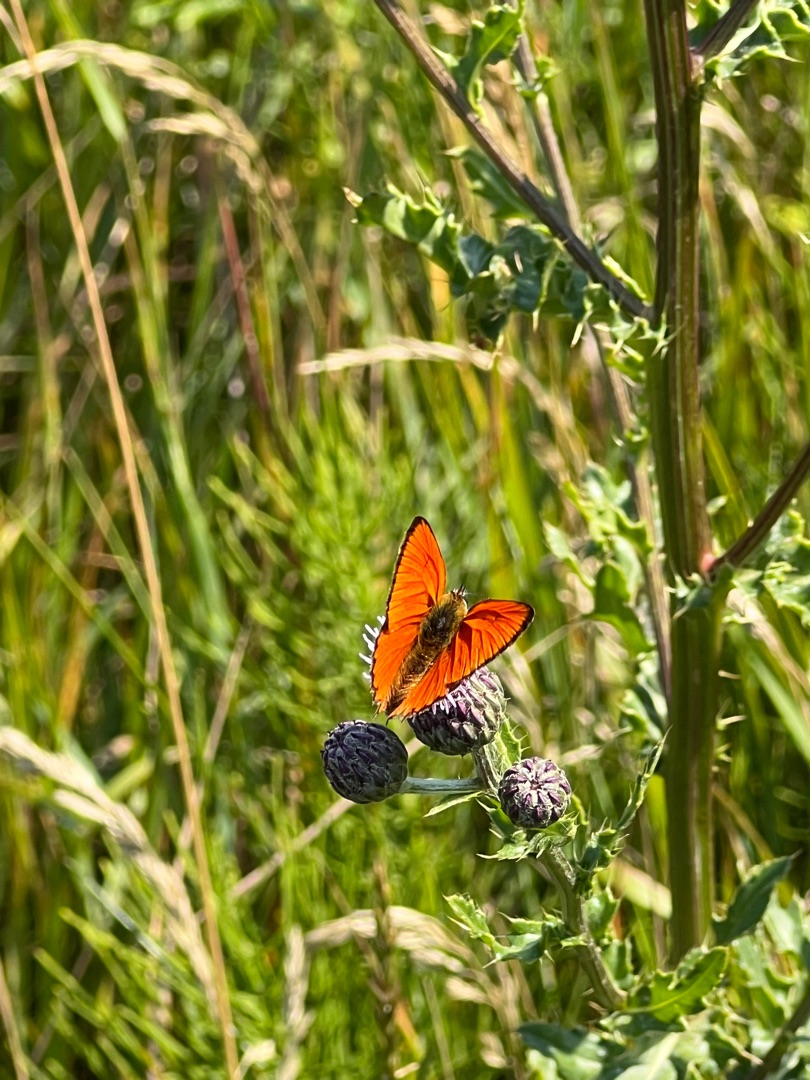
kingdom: Animalia
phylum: Arthropoda
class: Insecta
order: Lepidoptera
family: Lycaenidae
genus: Lycaena
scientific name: Lycaena virgaureae
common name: Dukatsommerfugl
